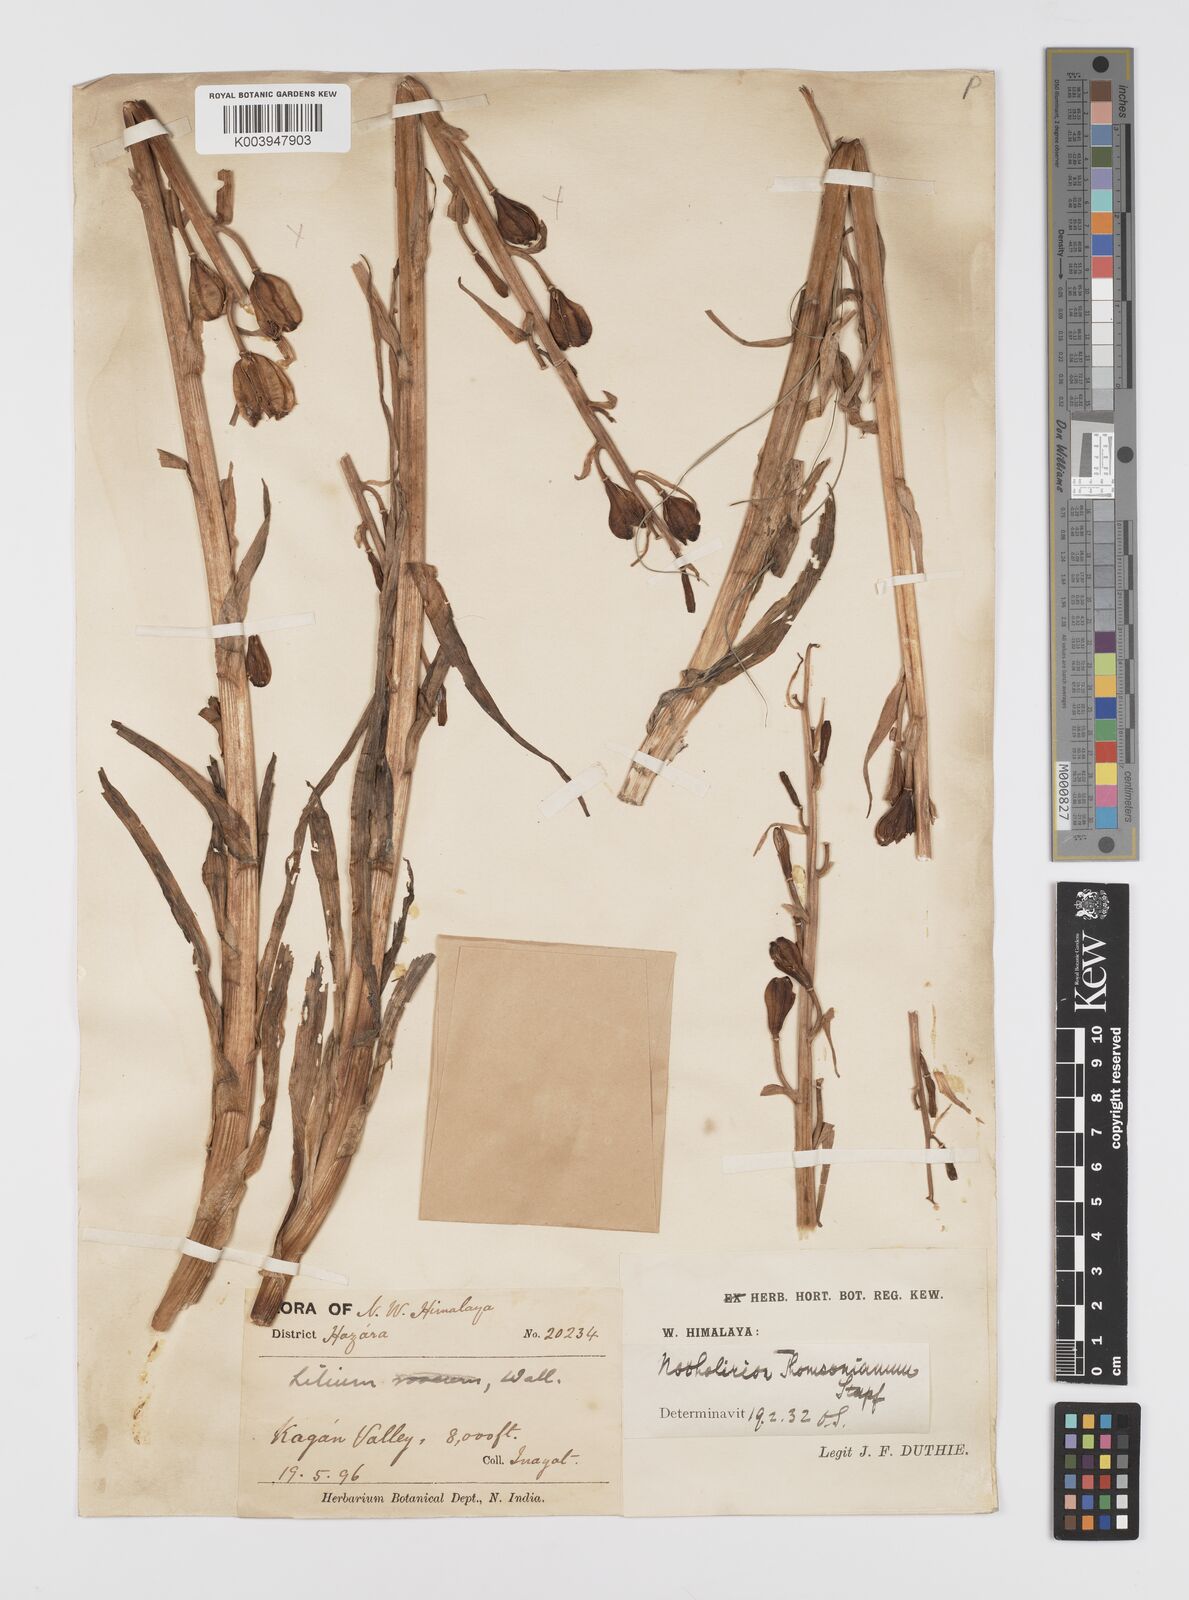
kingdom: Plantae
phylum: Tracheophyta
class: Liliopsida
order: Liliales
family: Liliaceae
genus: Notholirion
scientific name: Notholirion thomsonianum
